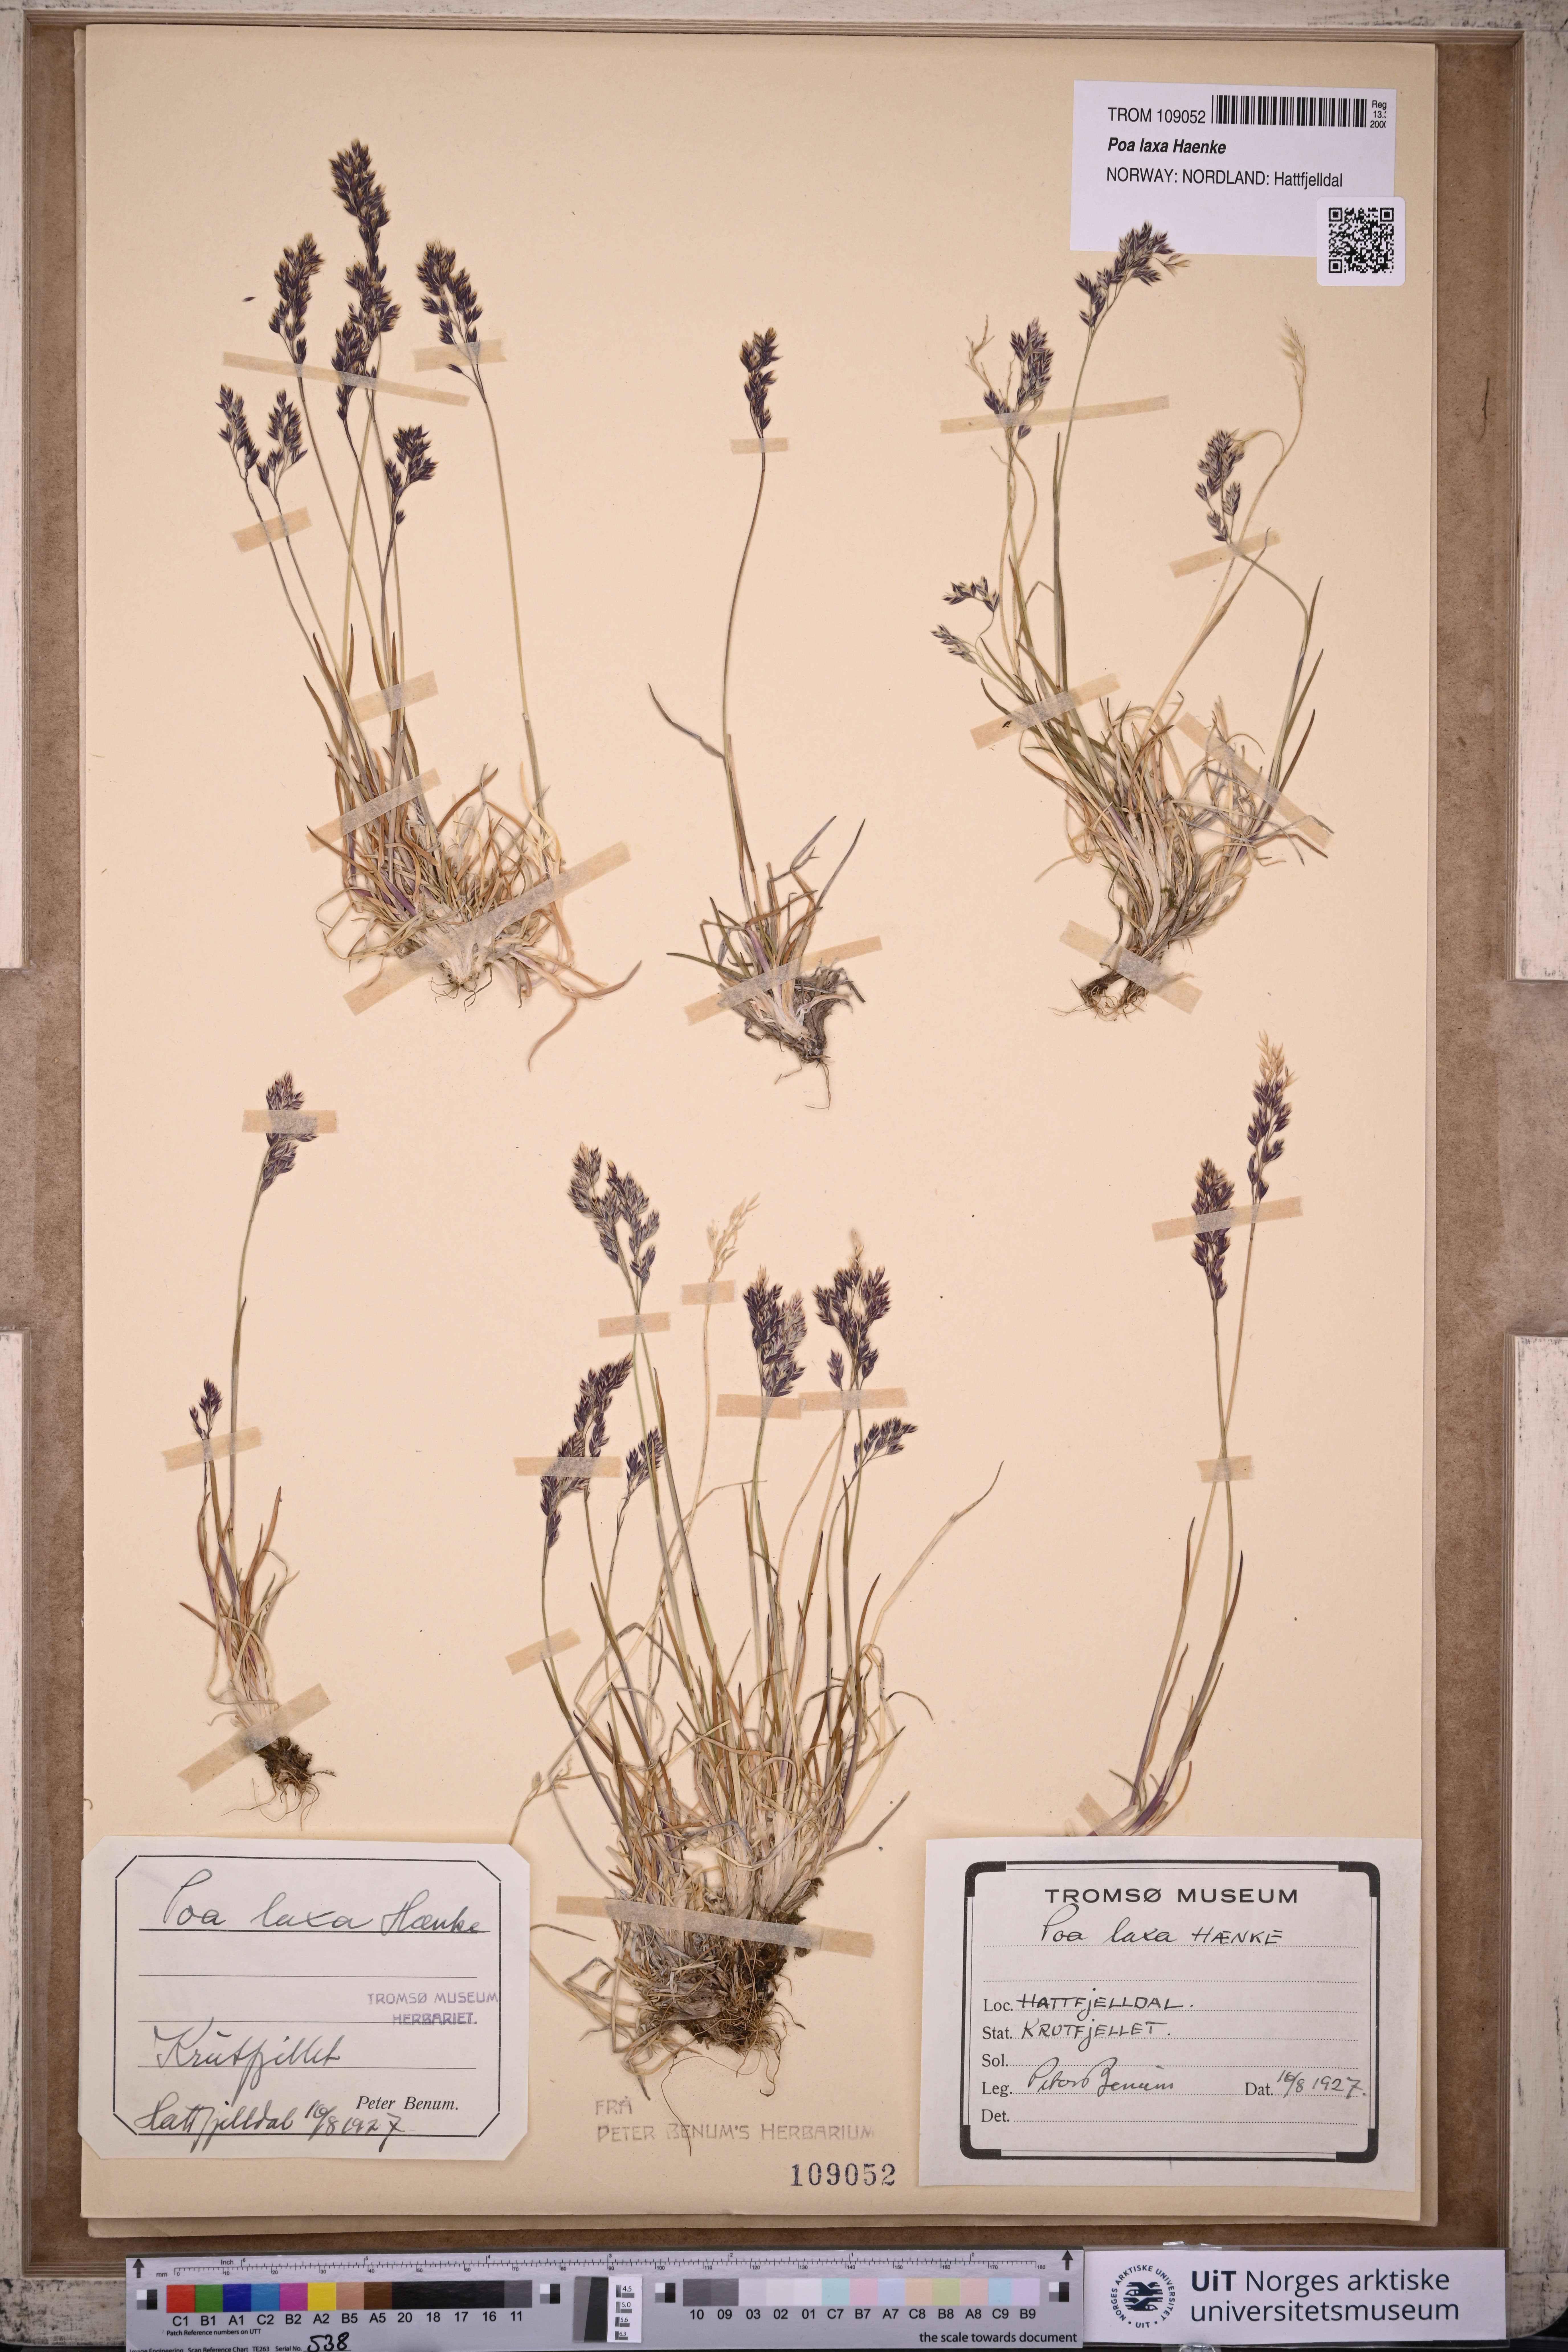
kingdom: Plantae
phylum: Tracheophyta
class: Liliopsida
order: Poales
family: Poaceae
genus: Poa
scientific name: Poa flexuosa
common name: Wavy meadow-grass
